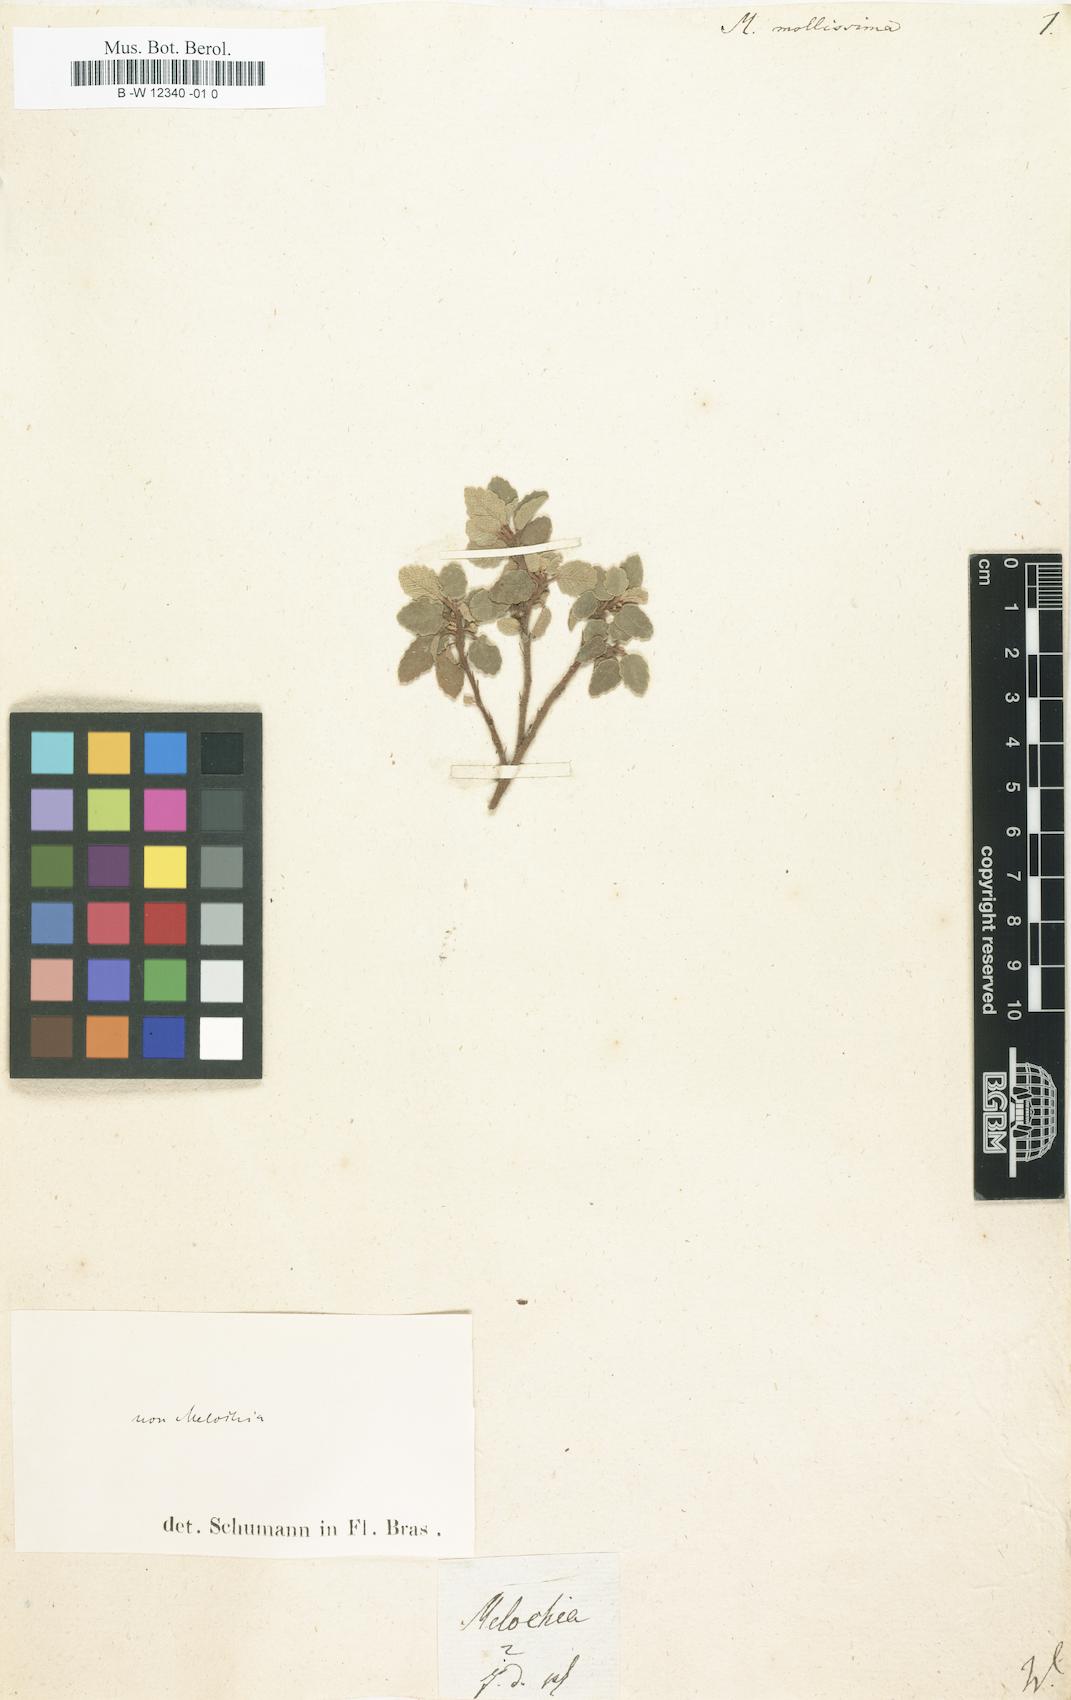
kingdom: Plantae
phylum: Tracheophyta
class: Magnoliopsida
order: Malvales
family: Malvaceae
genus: Melochia
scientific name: Melochia mollissima
